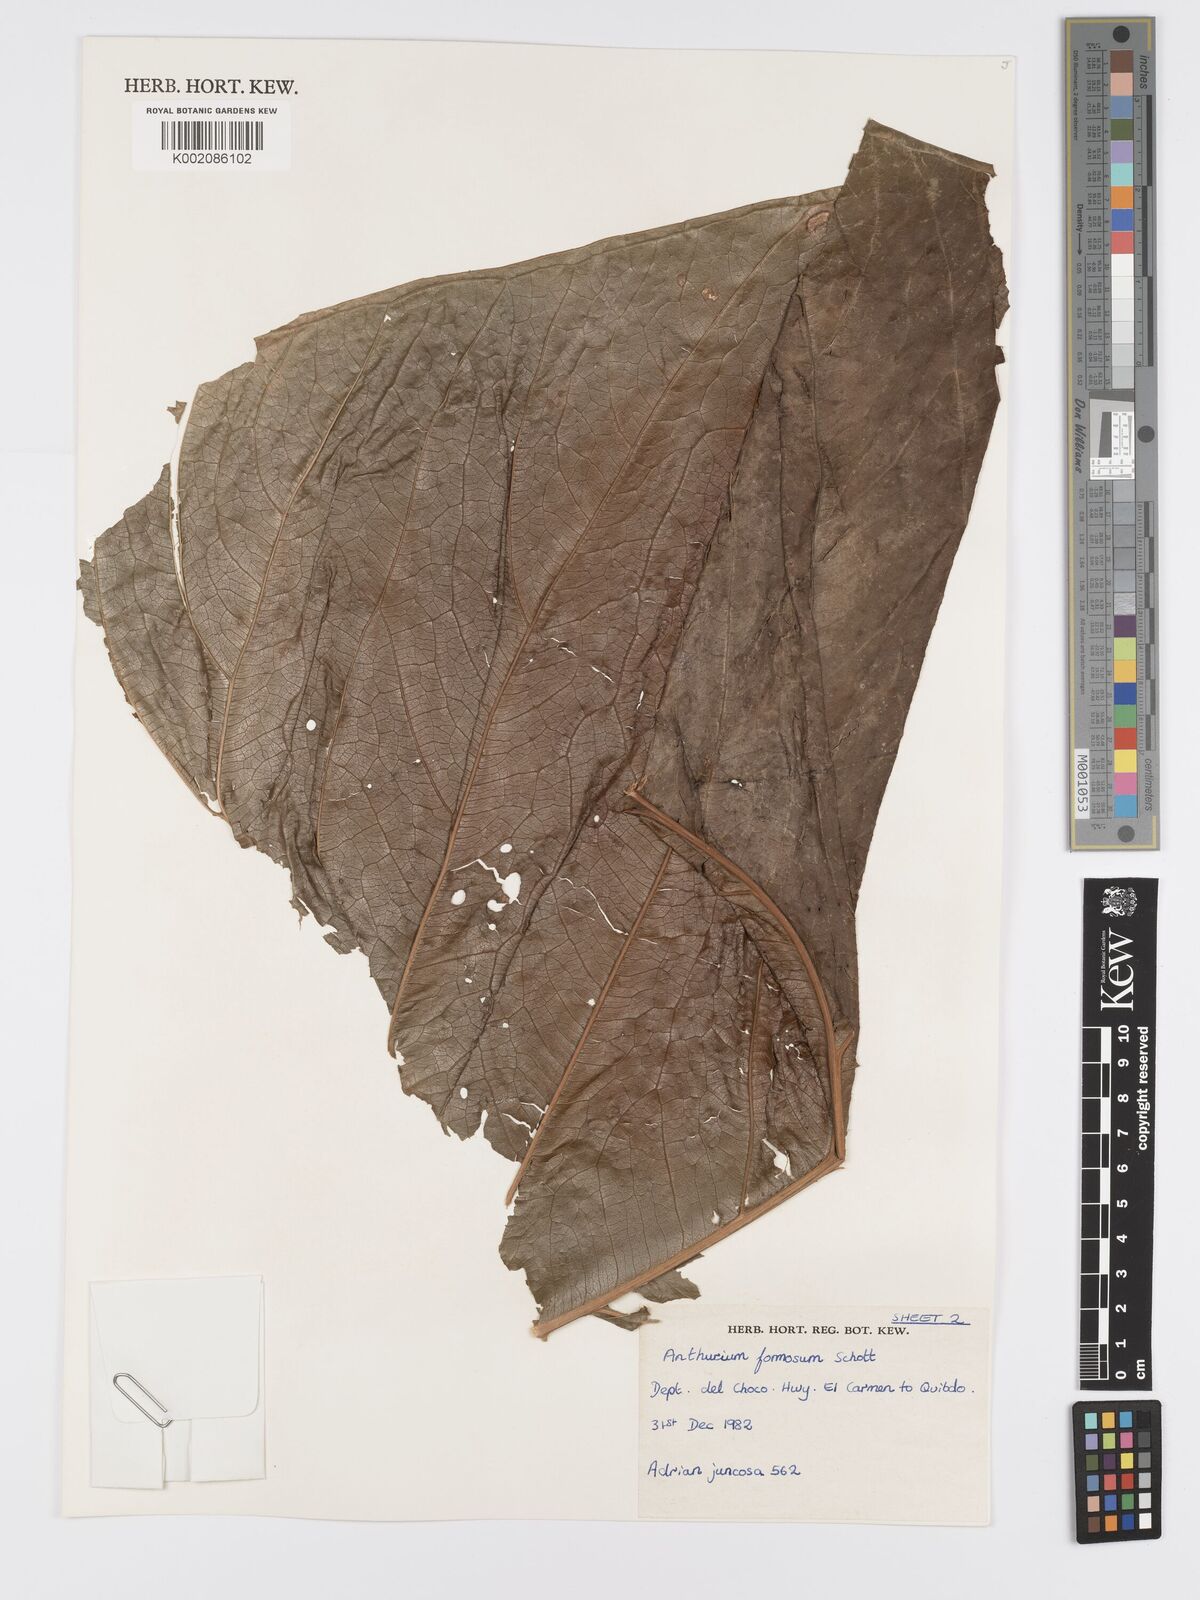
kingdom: Plantae
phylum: Tracheophyta
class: Liliopsida
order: Alismatales
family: Araceae
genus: Anthurium
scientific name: Anthurium formosum
